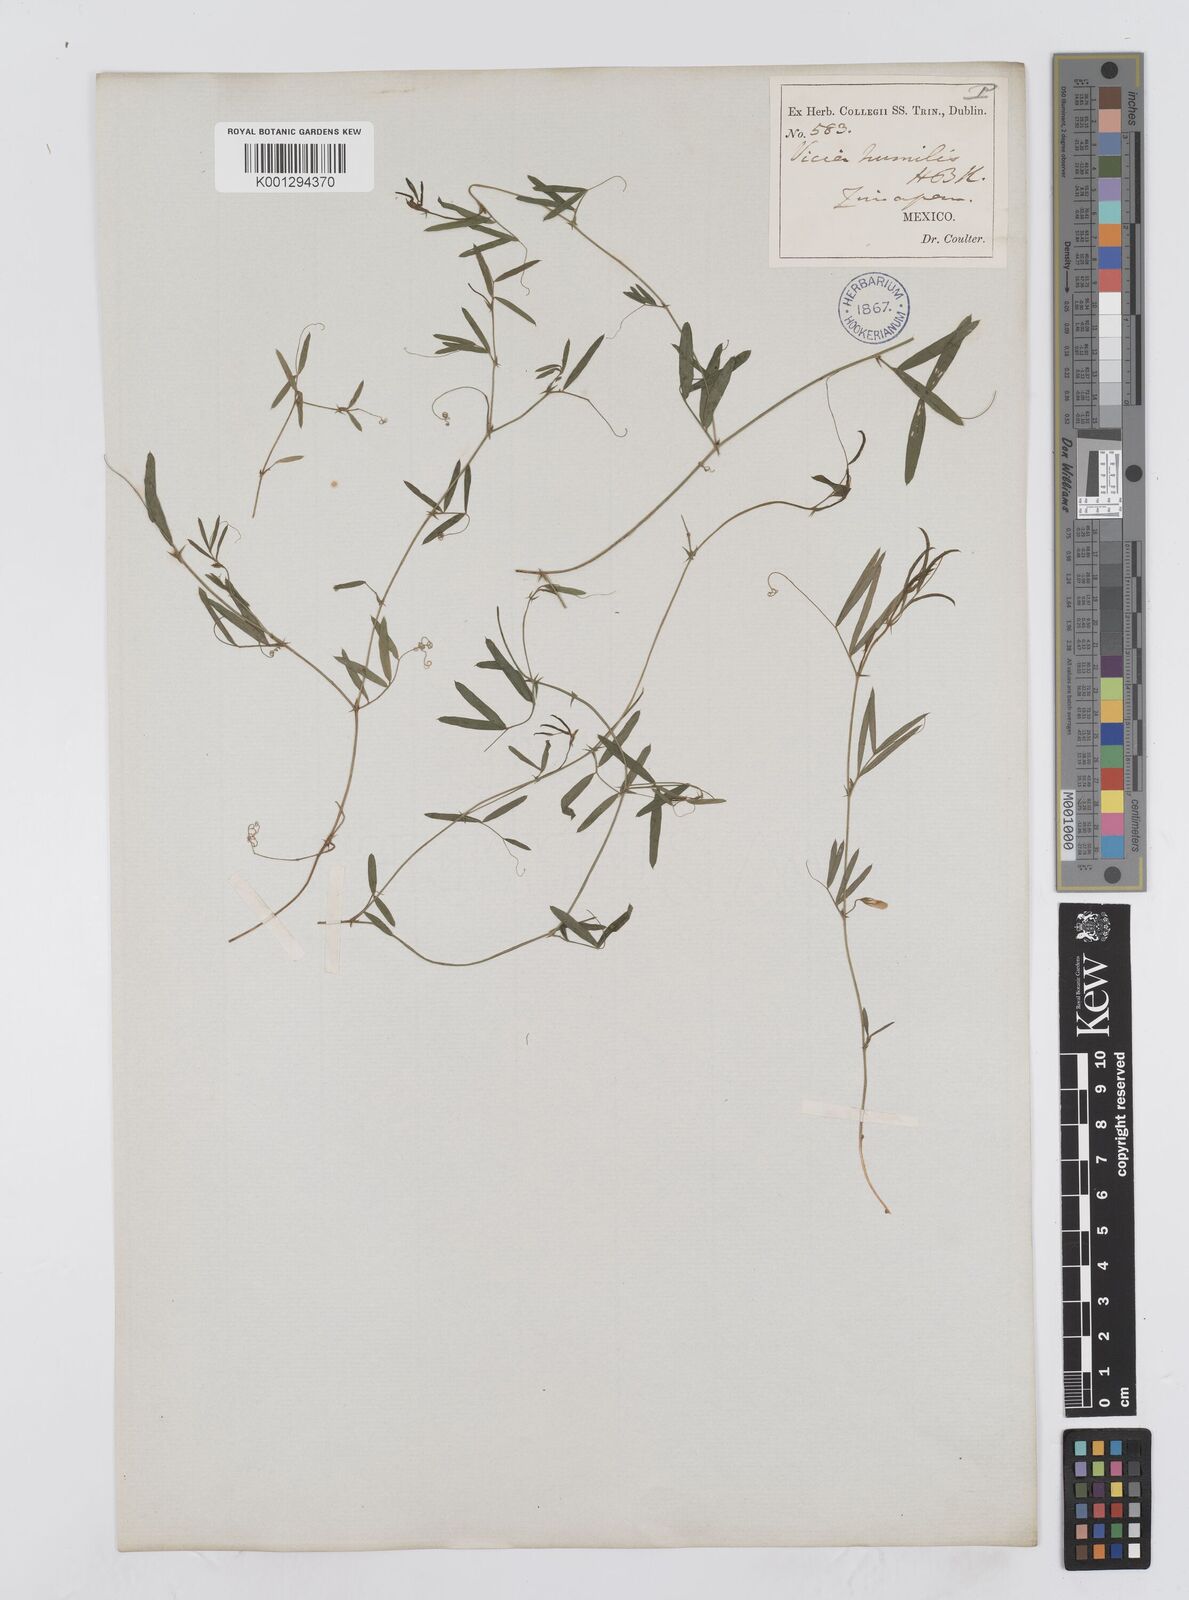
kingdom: Plantae
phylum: Tracheophyta
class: Magnoliopsida
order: Fabales
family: Fabaceae
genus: Vicia
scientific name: Vicia humilis
